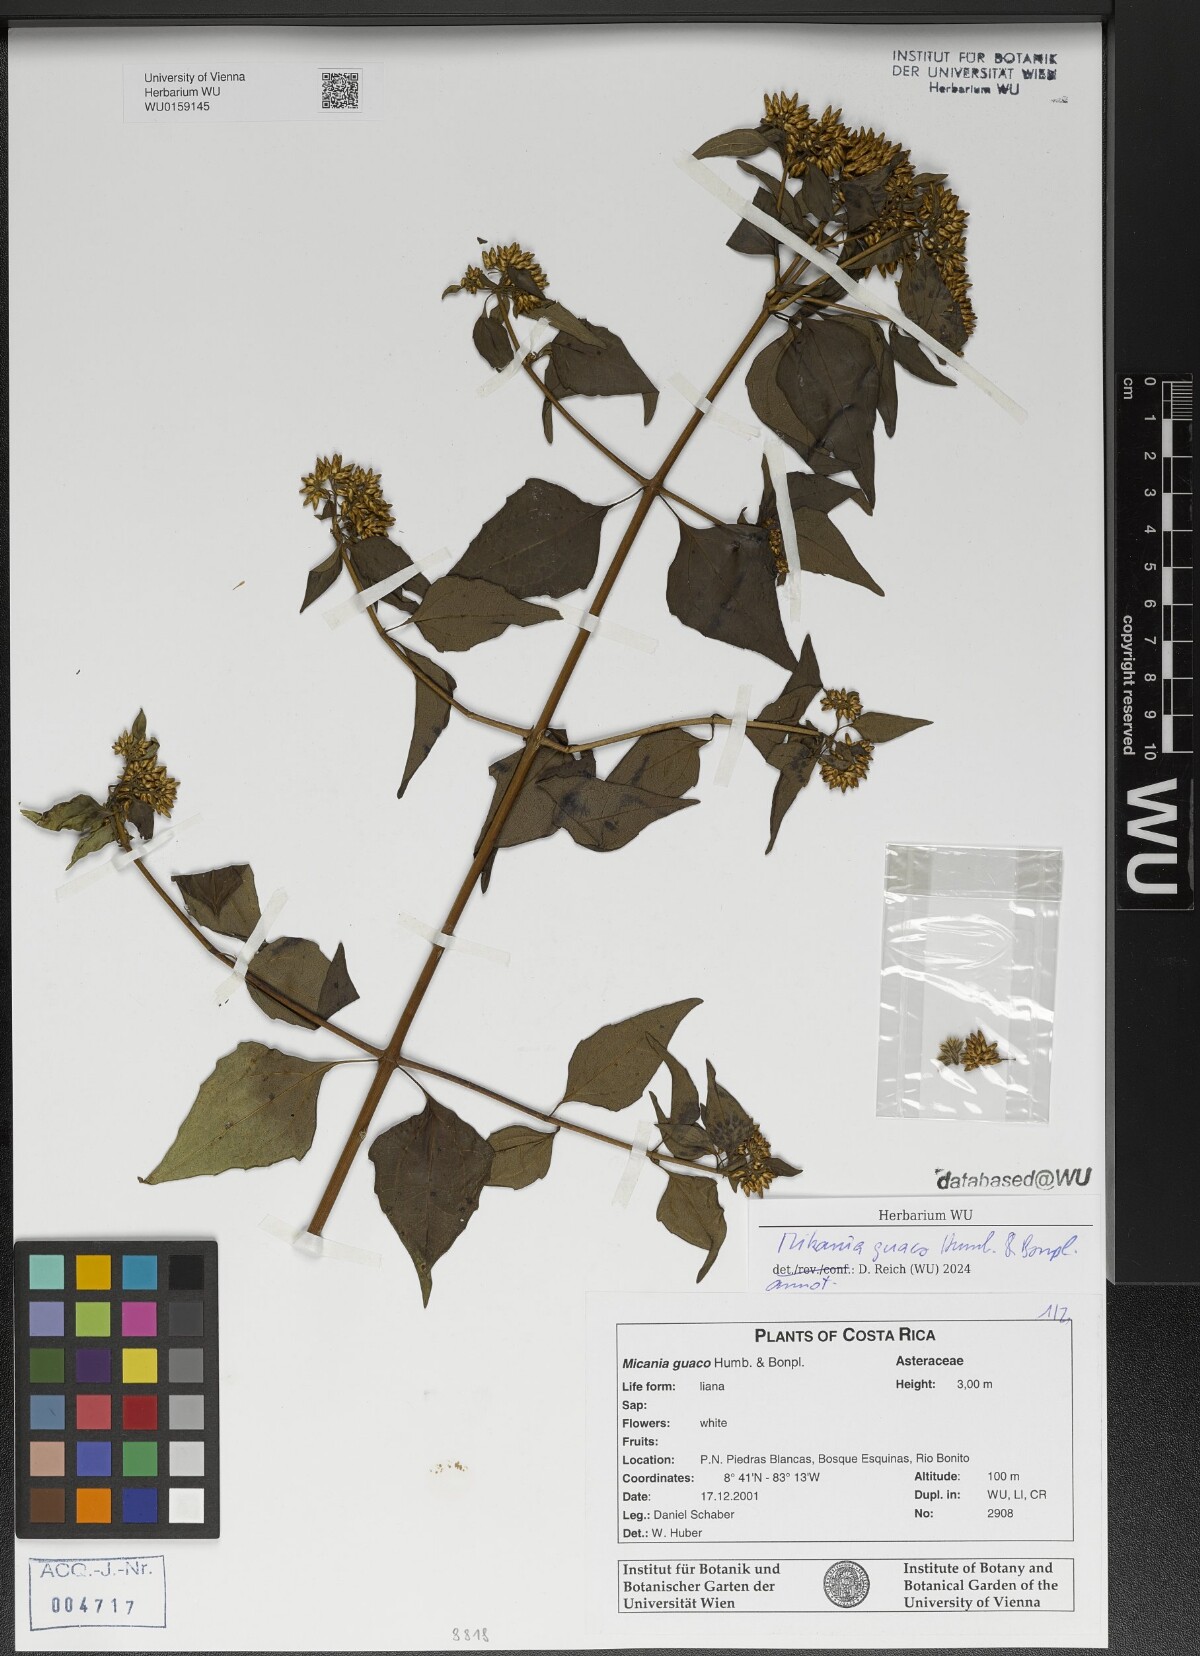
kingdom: Plantae
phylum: Tracheophyta
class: Magnoliopsida
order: Asterales
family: Asteraceae
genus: Mikania
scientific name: Mikania guaco
